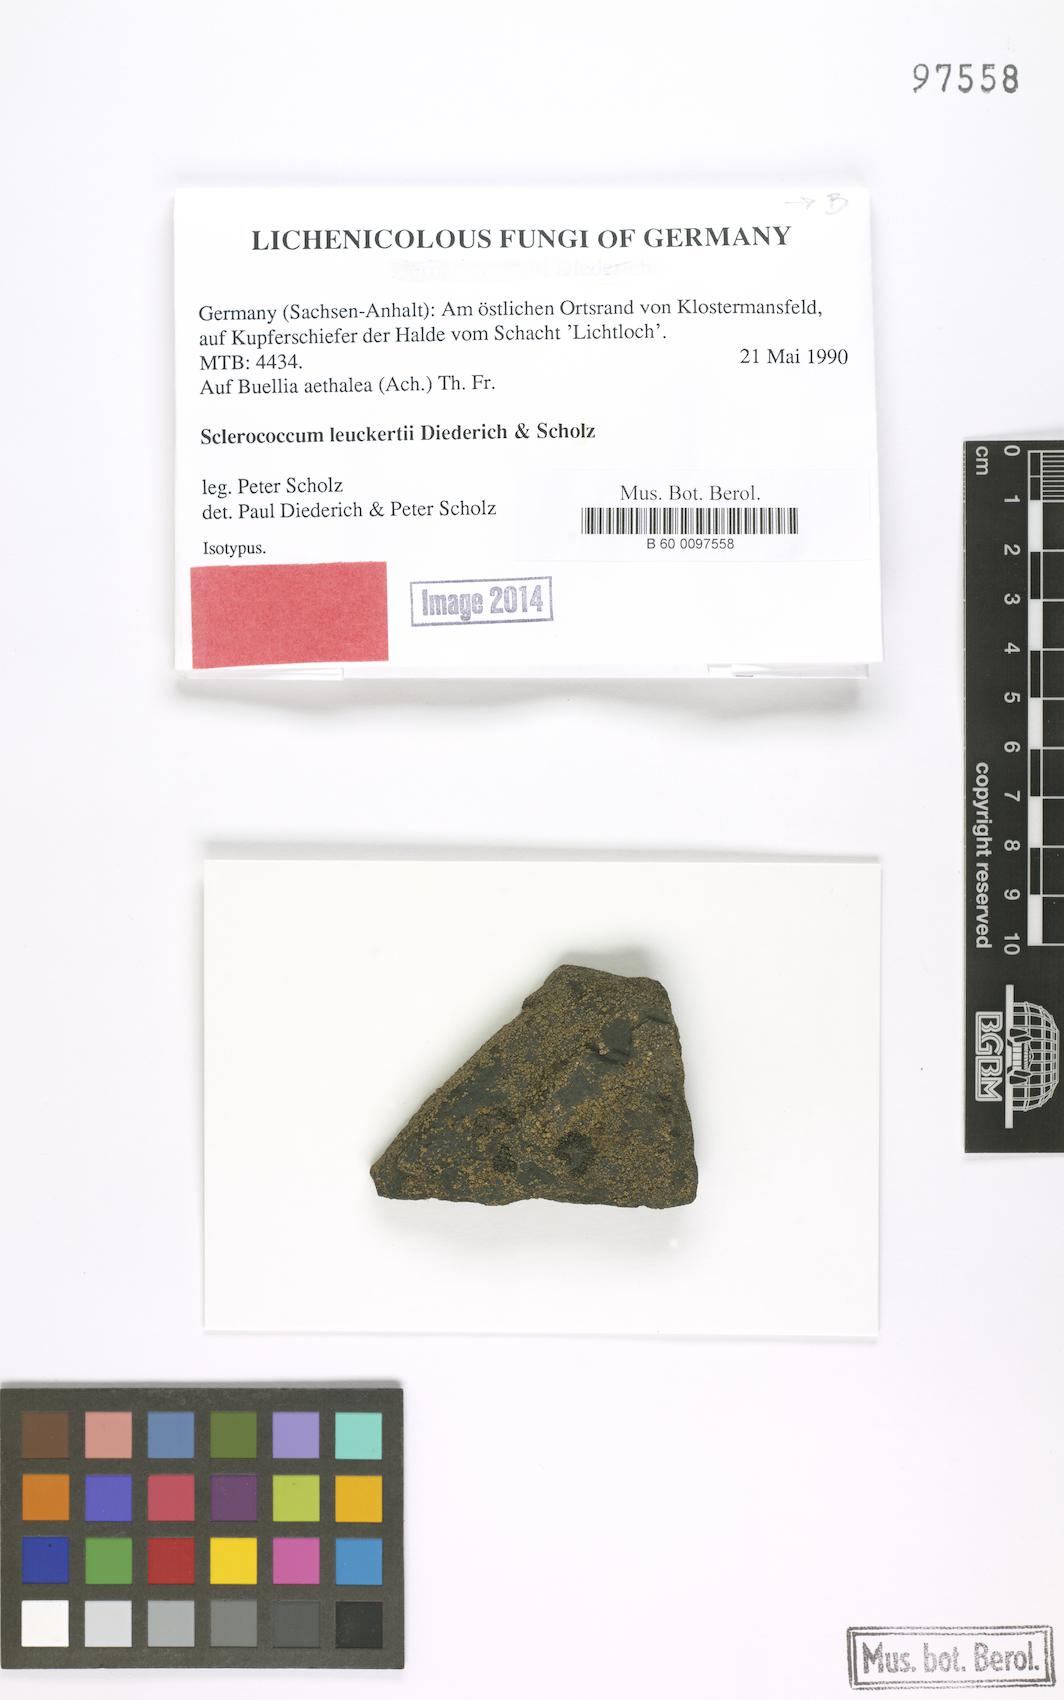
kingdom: Fungi
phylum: Ascomycota
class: Eurotiomycetes
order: Sclerococcales
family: Sclerococcaceae
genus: Sclerococcum
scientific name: Sclerococcum leuckertii
